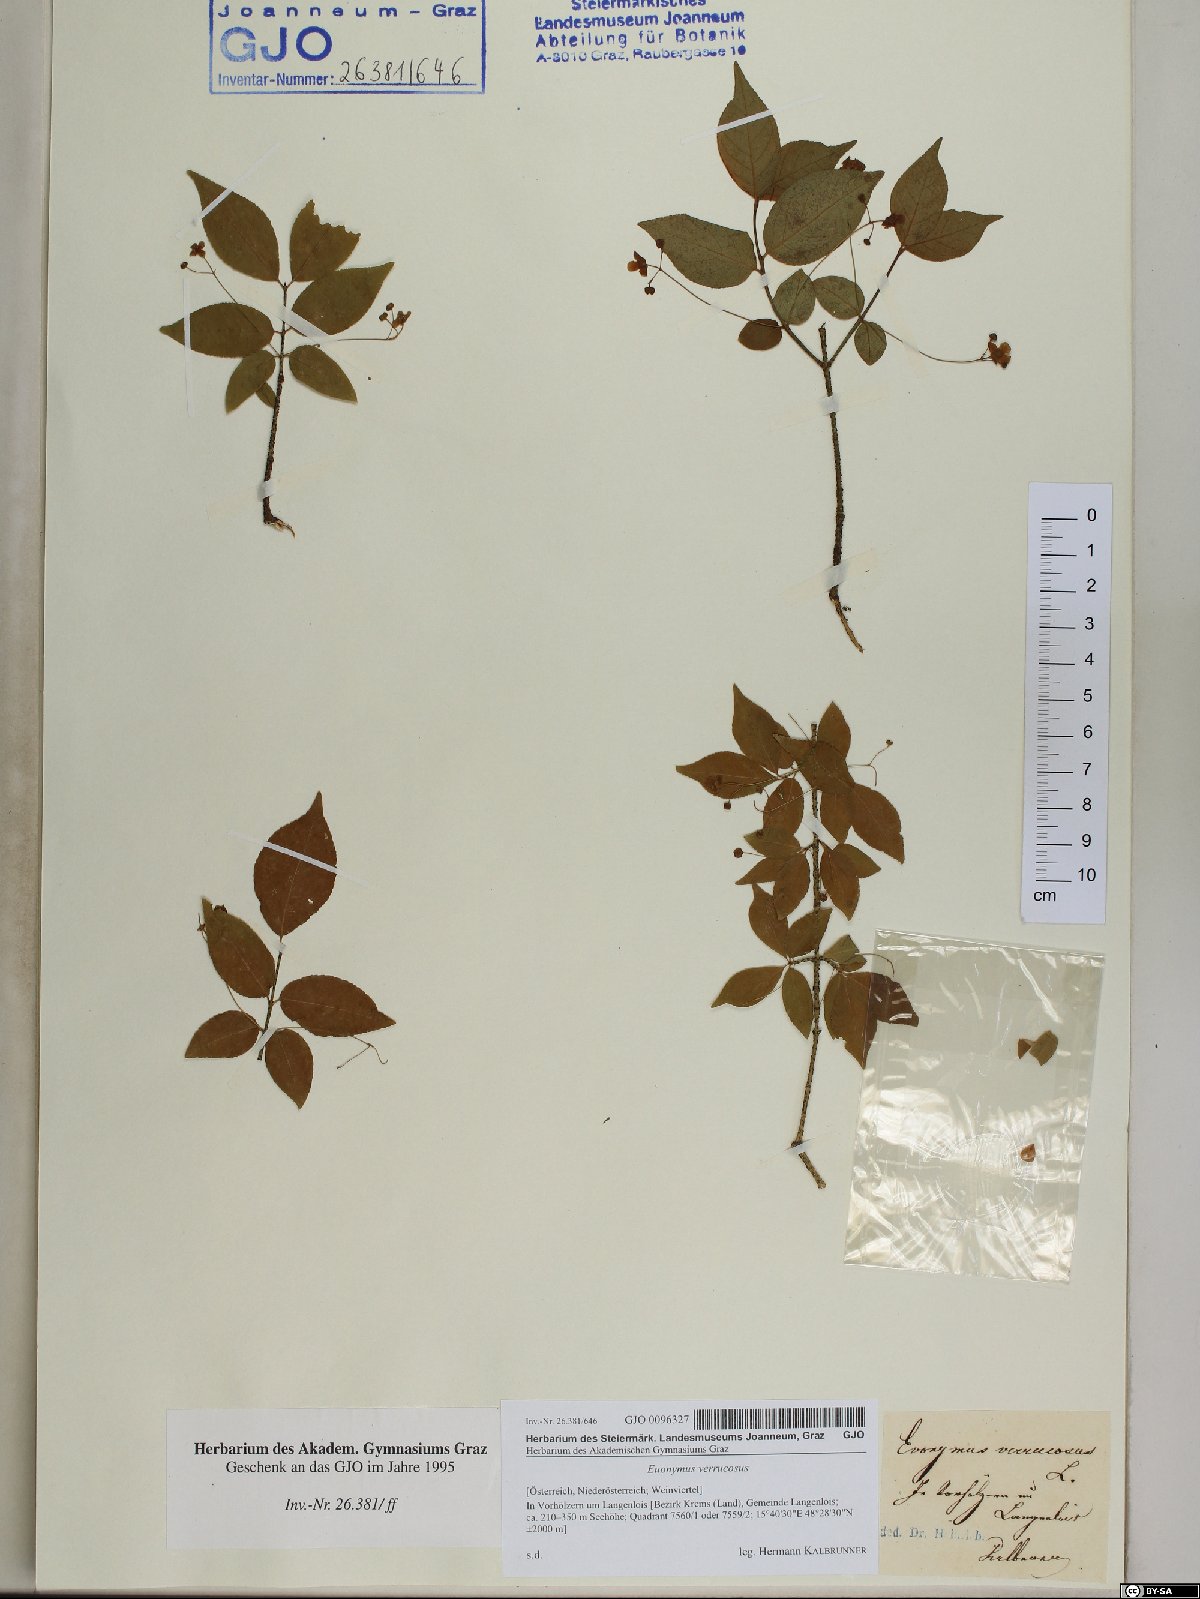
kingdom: Plantae
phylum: Tracheophyta
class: Magnoliopsida
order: Celastrales
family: Celastraceae
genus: Euonymus
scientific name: Euonymus verrucosus
